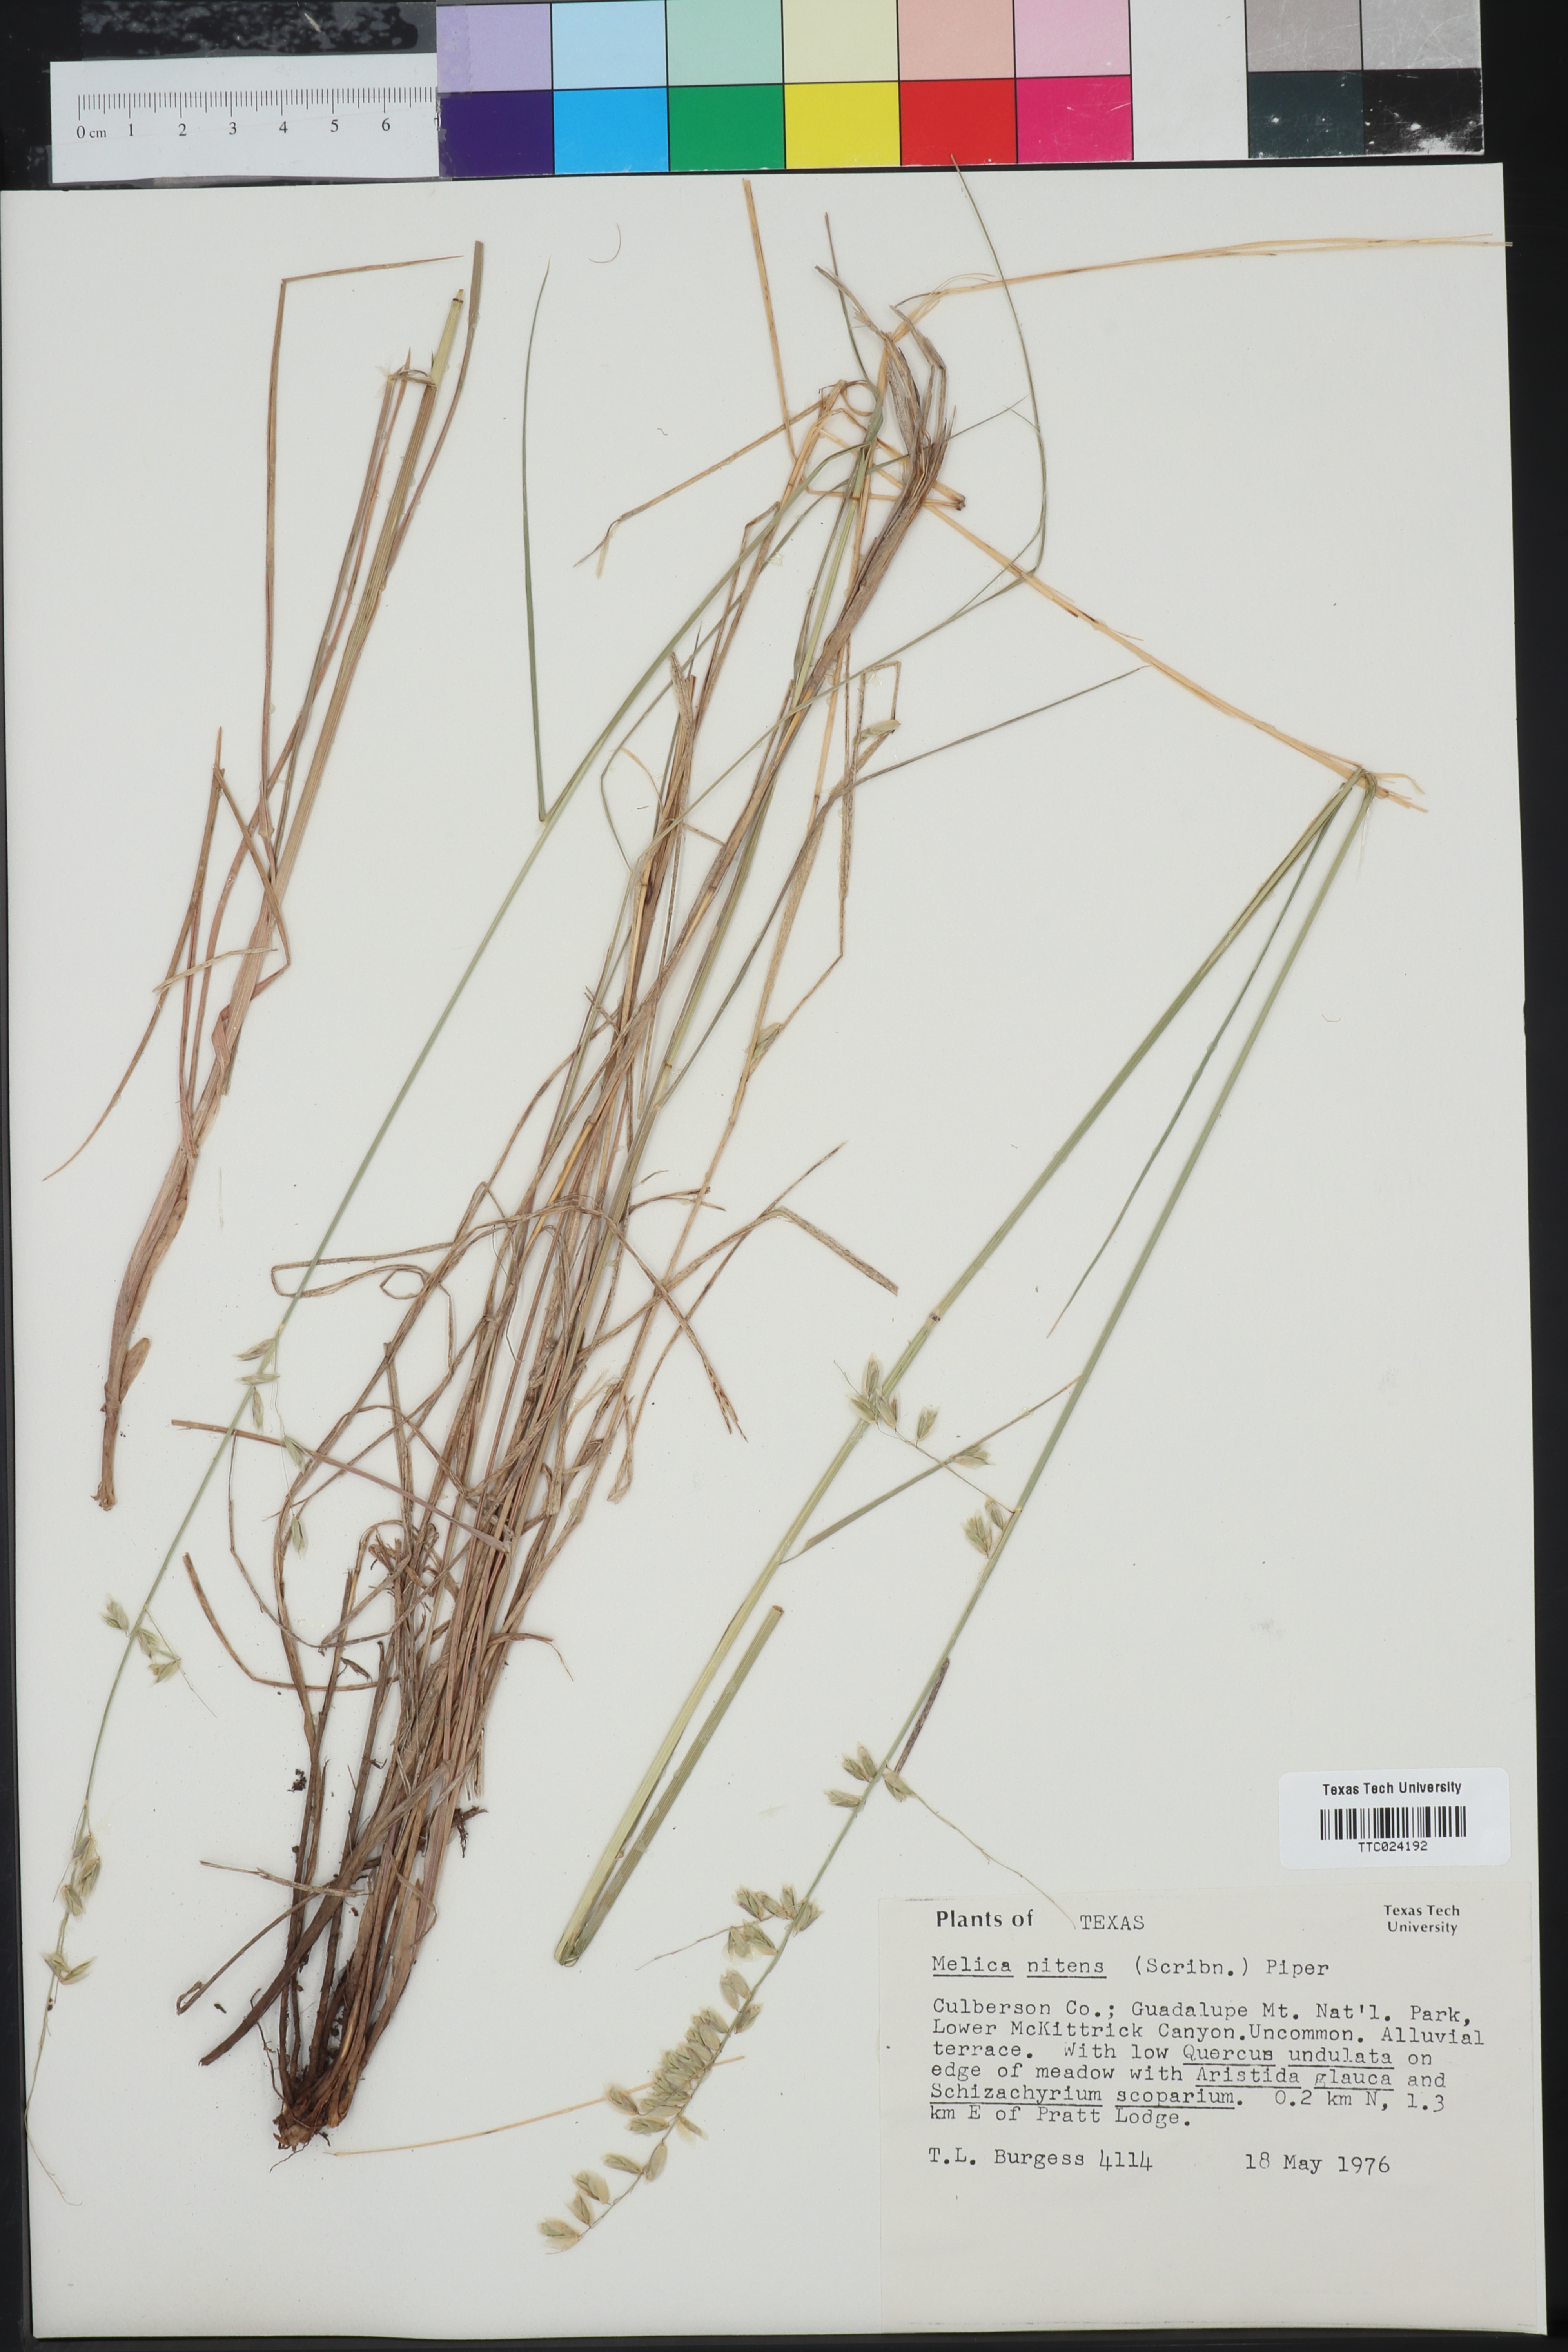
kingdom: Plantae
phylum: Tracheophyta
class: Liliopsida
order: Poales
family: Poaceae
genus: Melica
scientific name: Melica nitens
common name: Three-flower melic
